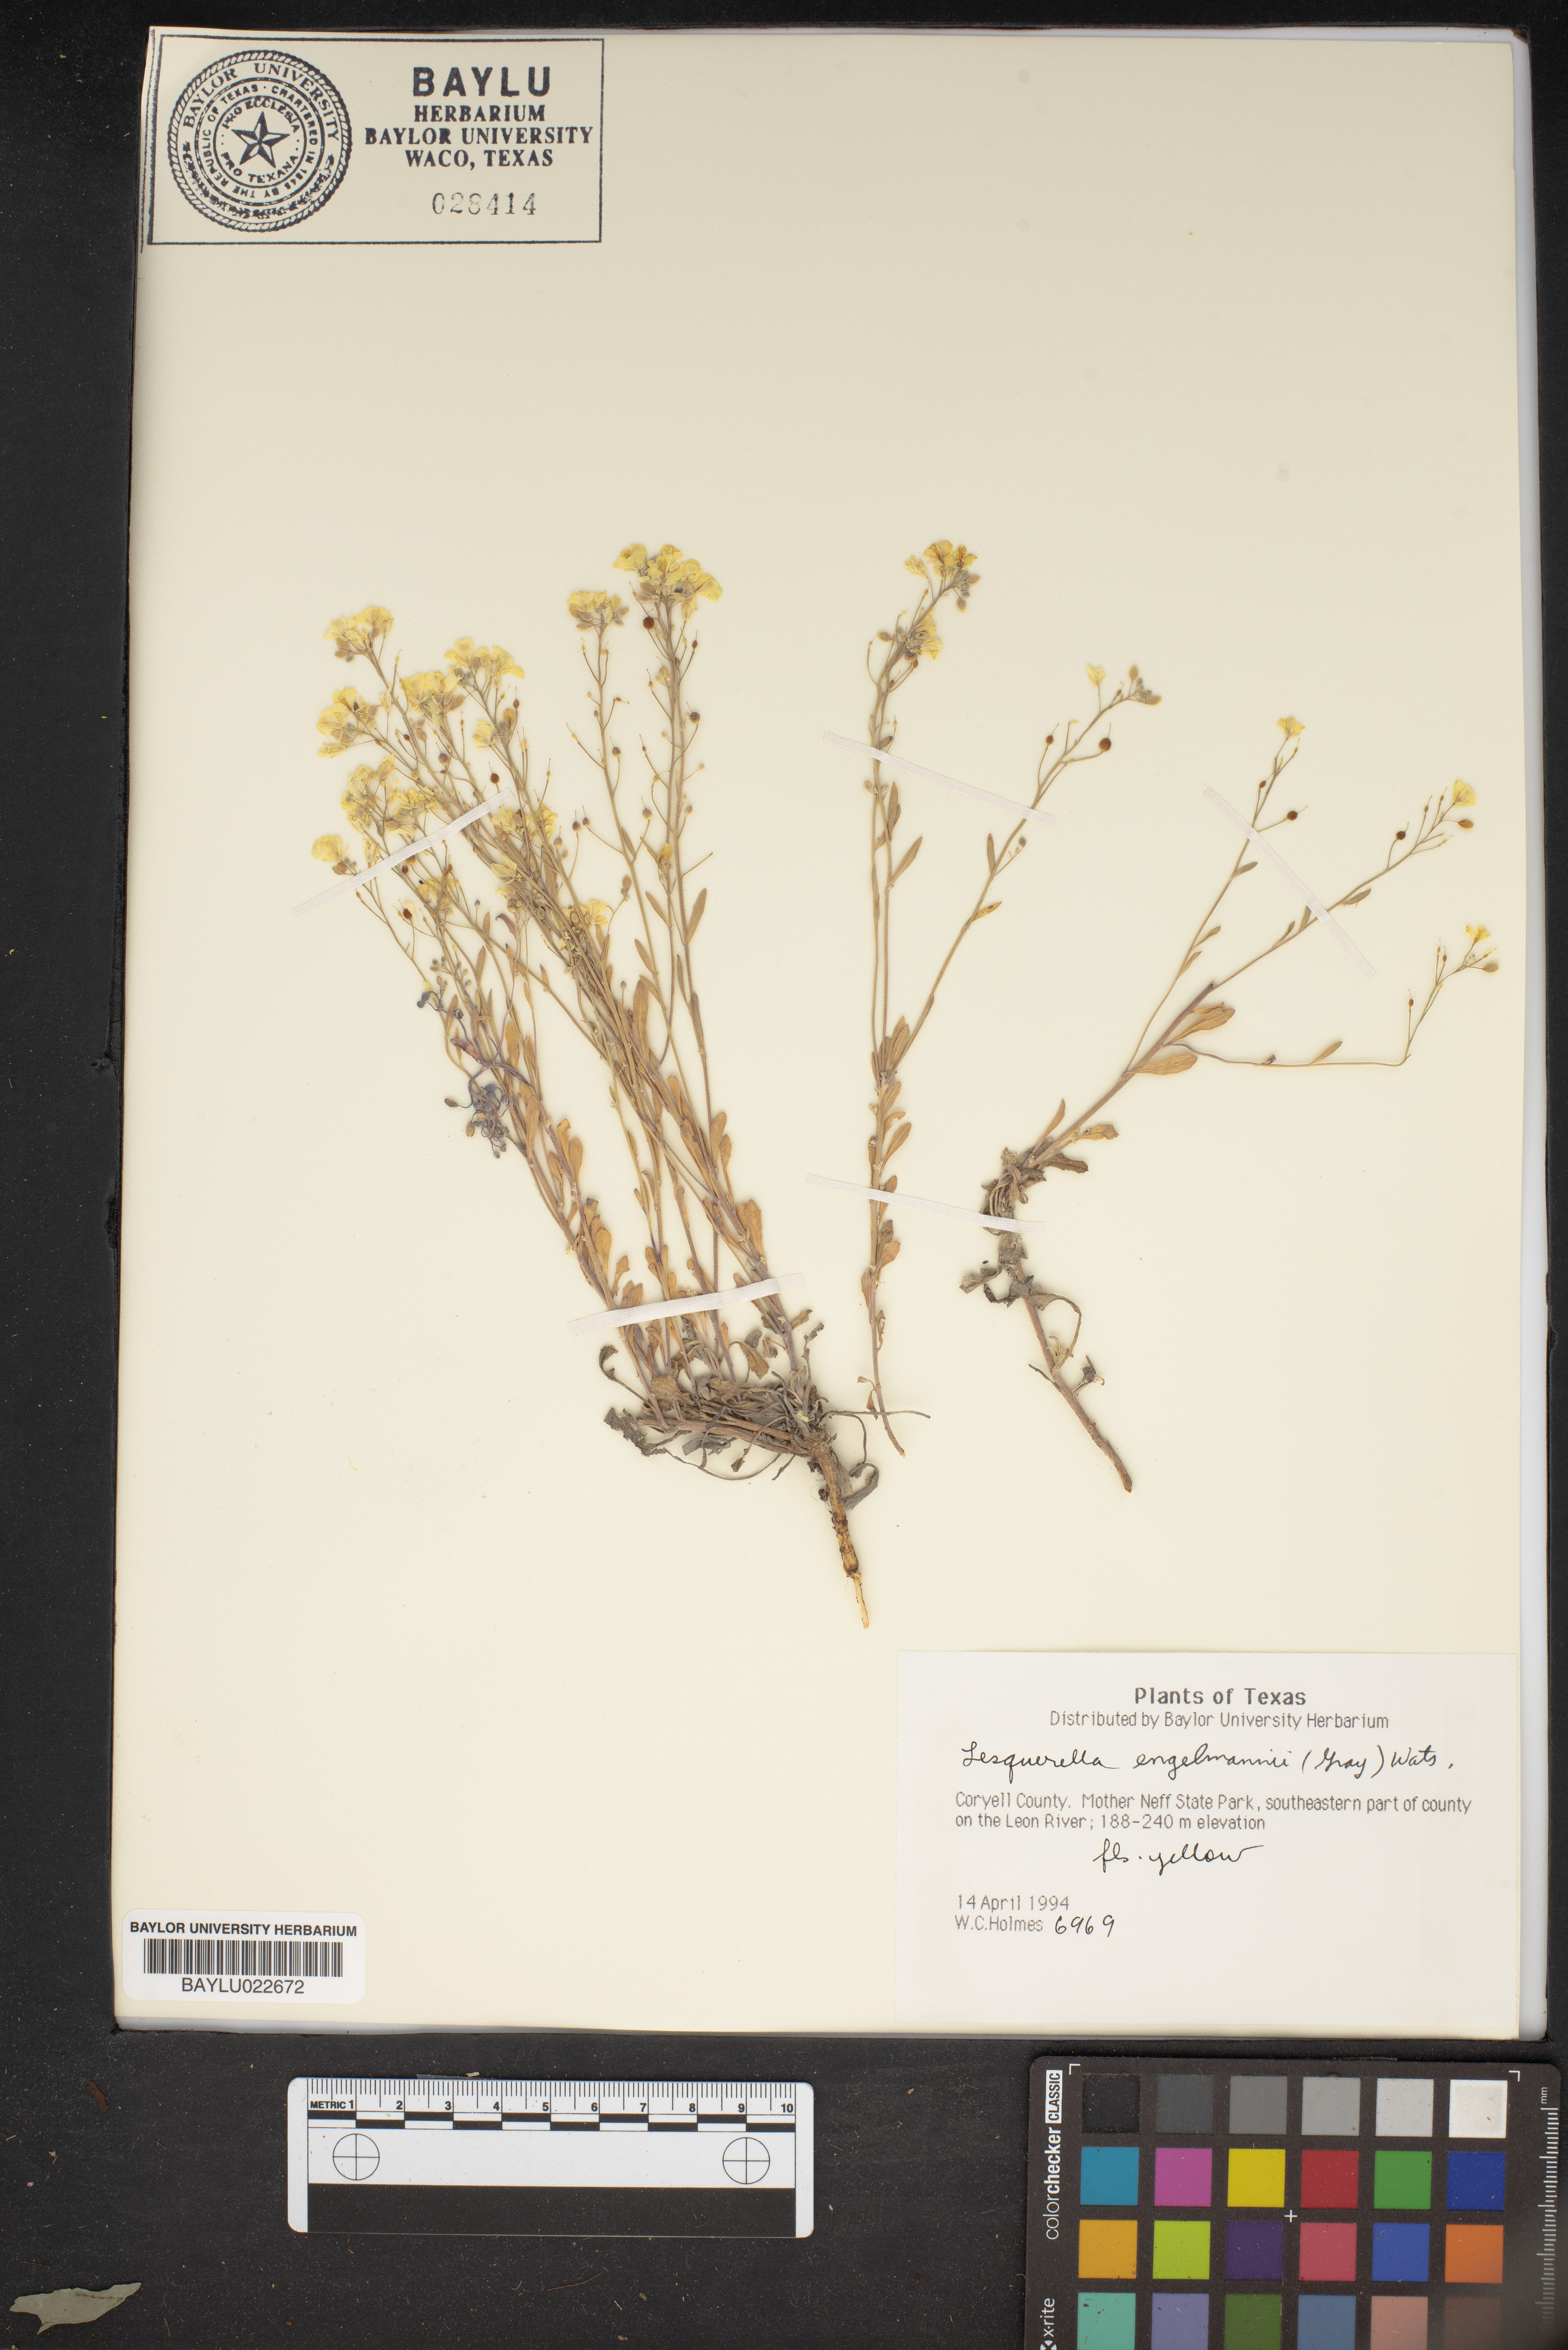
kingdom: Plantae
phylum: Tracheophyta
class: Magnoliopsida
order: Brassicales
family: Brassicaceae
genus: Physaria
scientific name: Physaria engelmannii
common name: Engelmann's bladderpod
